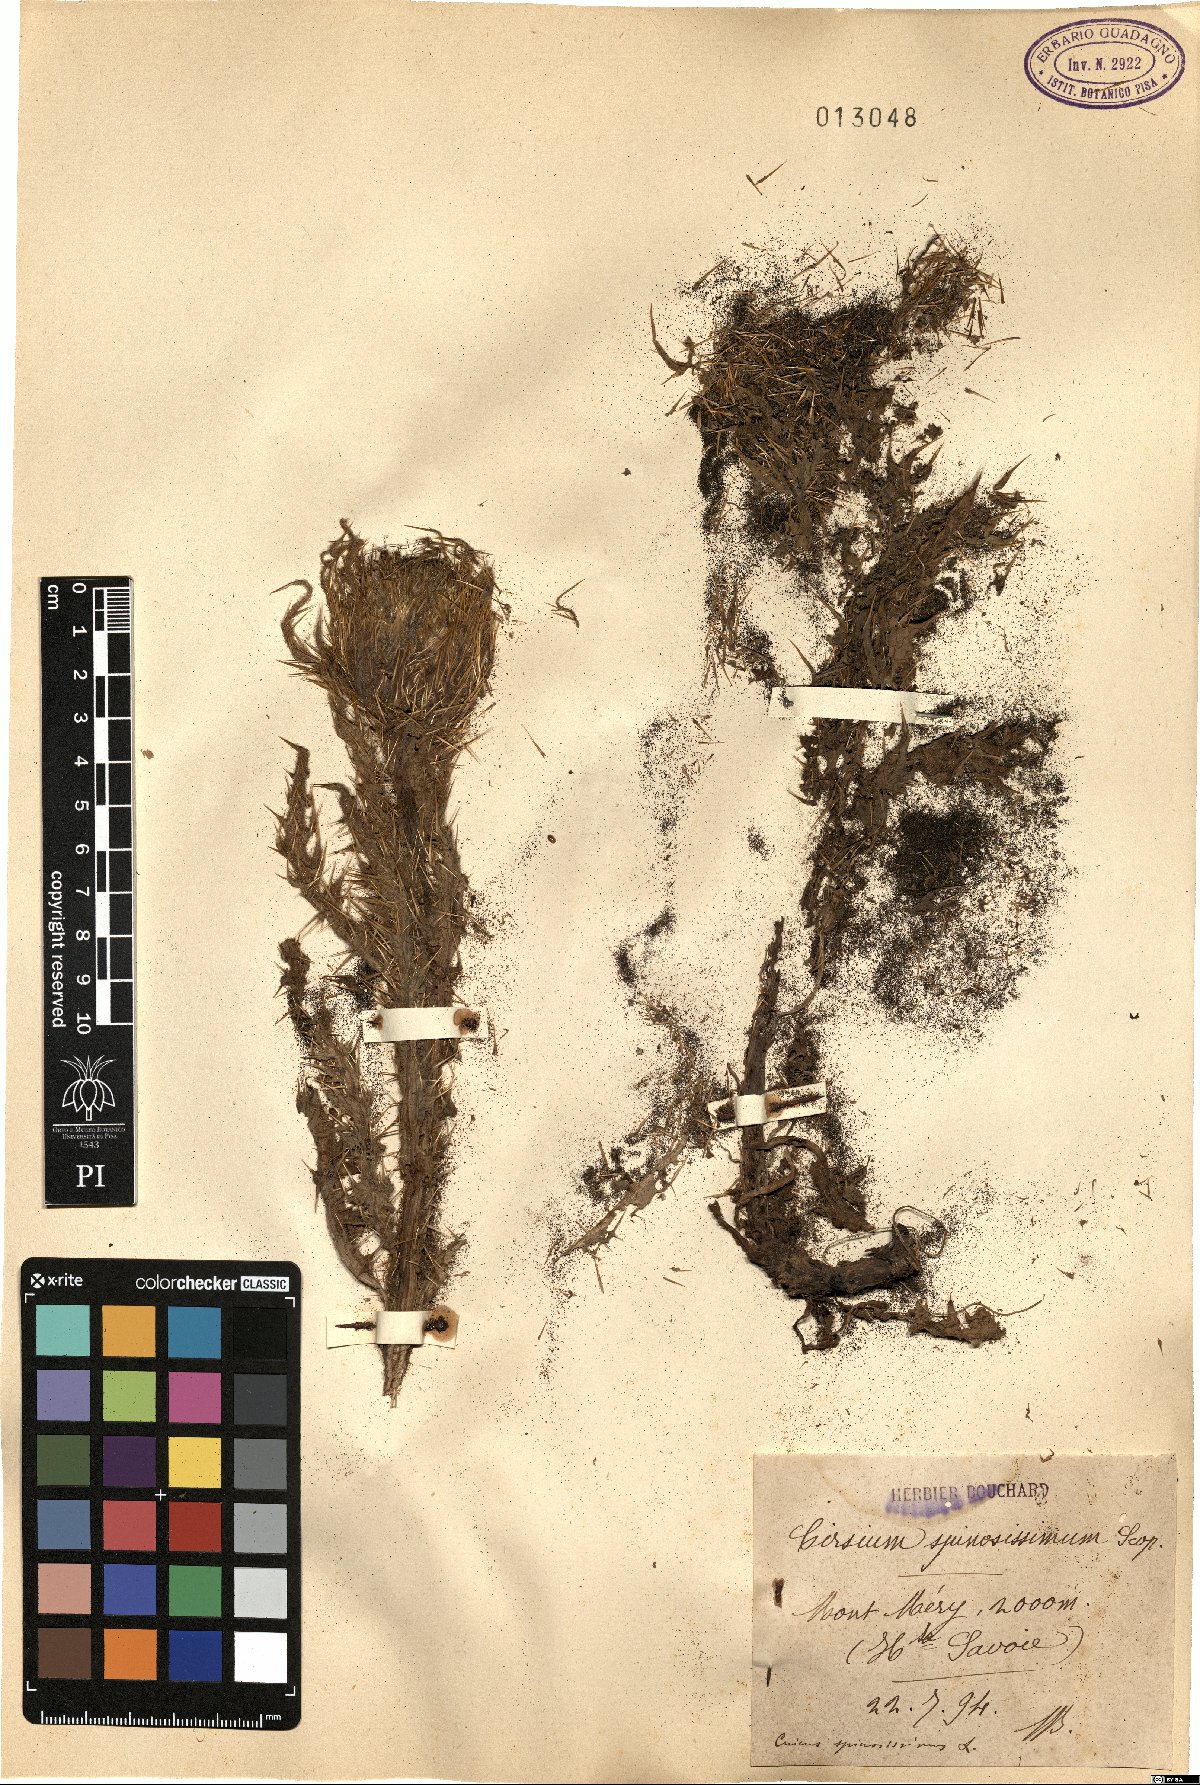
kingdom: Plantae
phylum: Tracheophyta
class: Magnoliopsida
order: Asterales
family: Asteraceae
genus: Cirsium
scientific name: Cirsium spinosissimum
